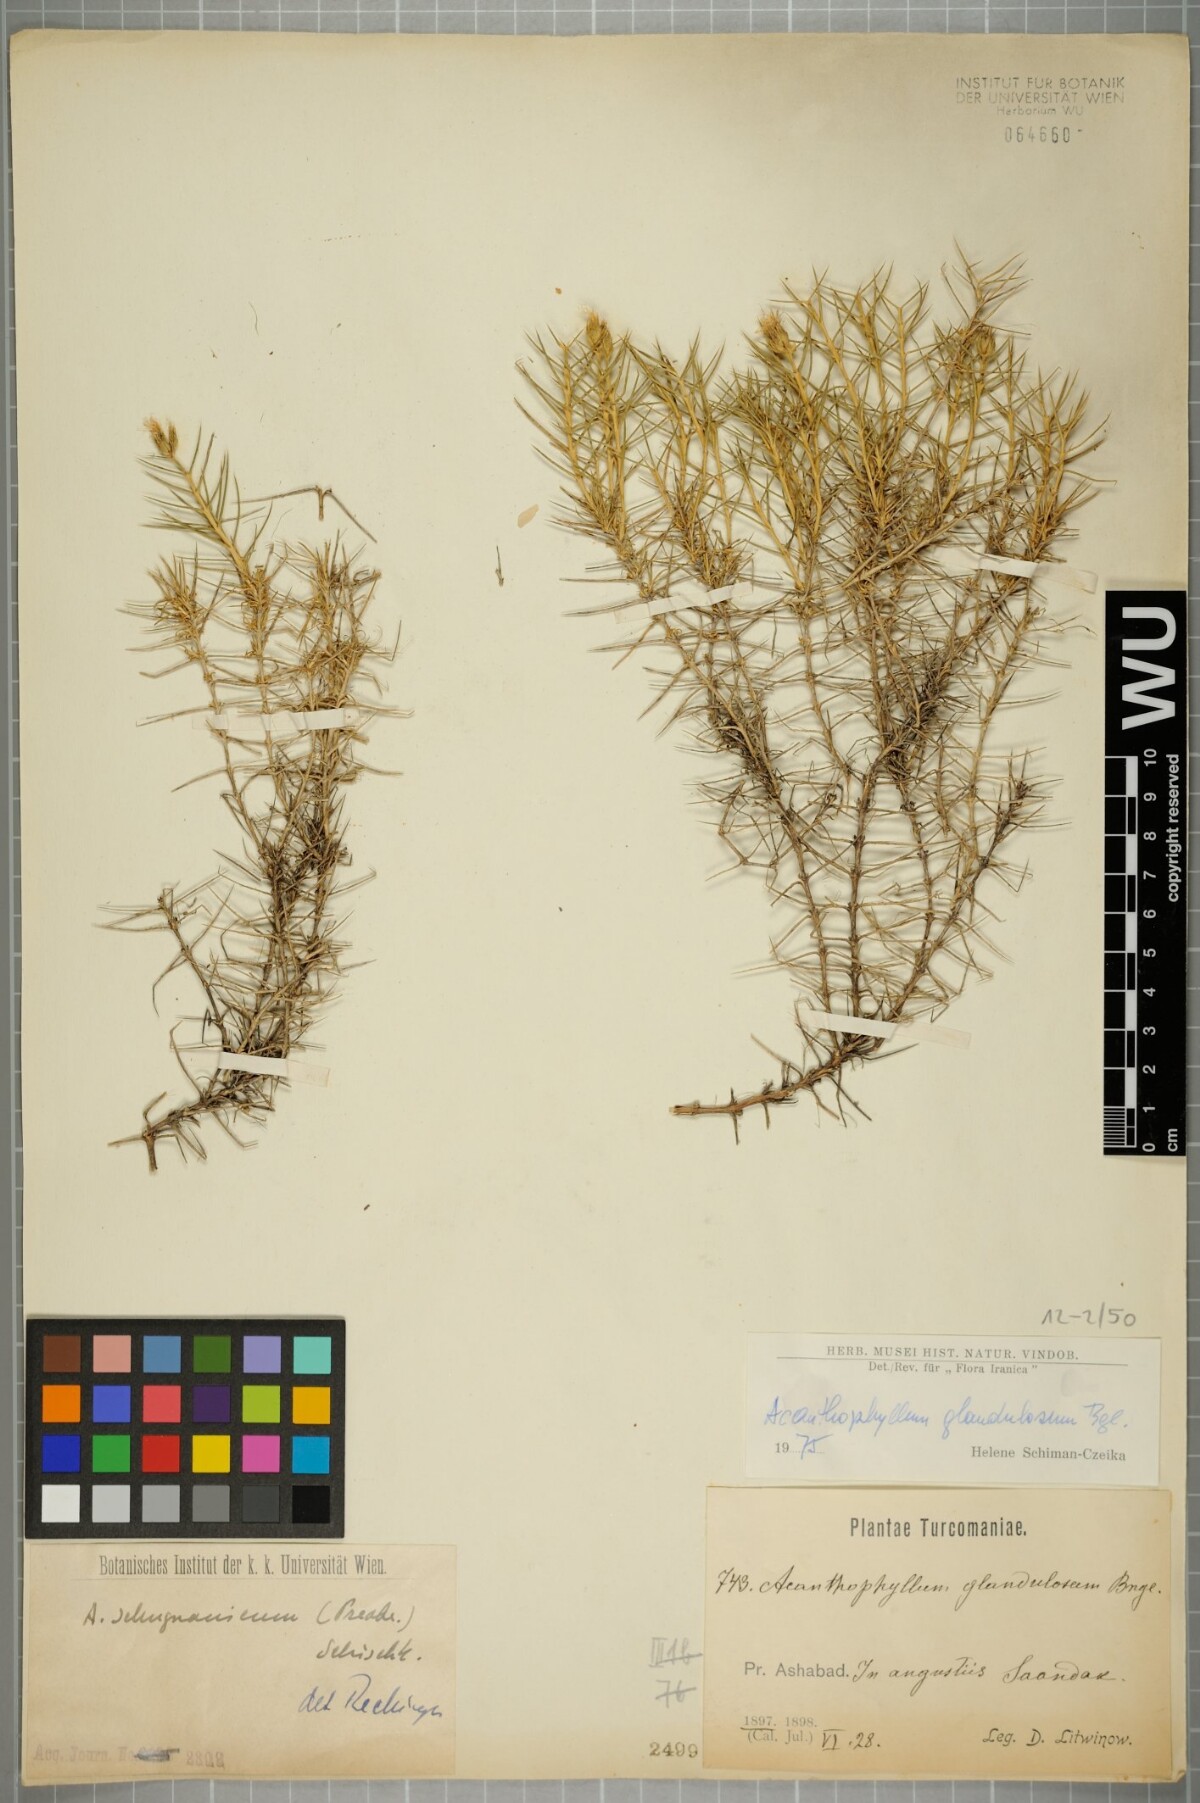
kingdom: Plantae
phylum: Tracheophyta
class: Magnoliopsida
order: Caryophyllales
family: Caryophyllaceae
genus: Acanthophyllum
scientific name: Acanthophyllum glandulosum
